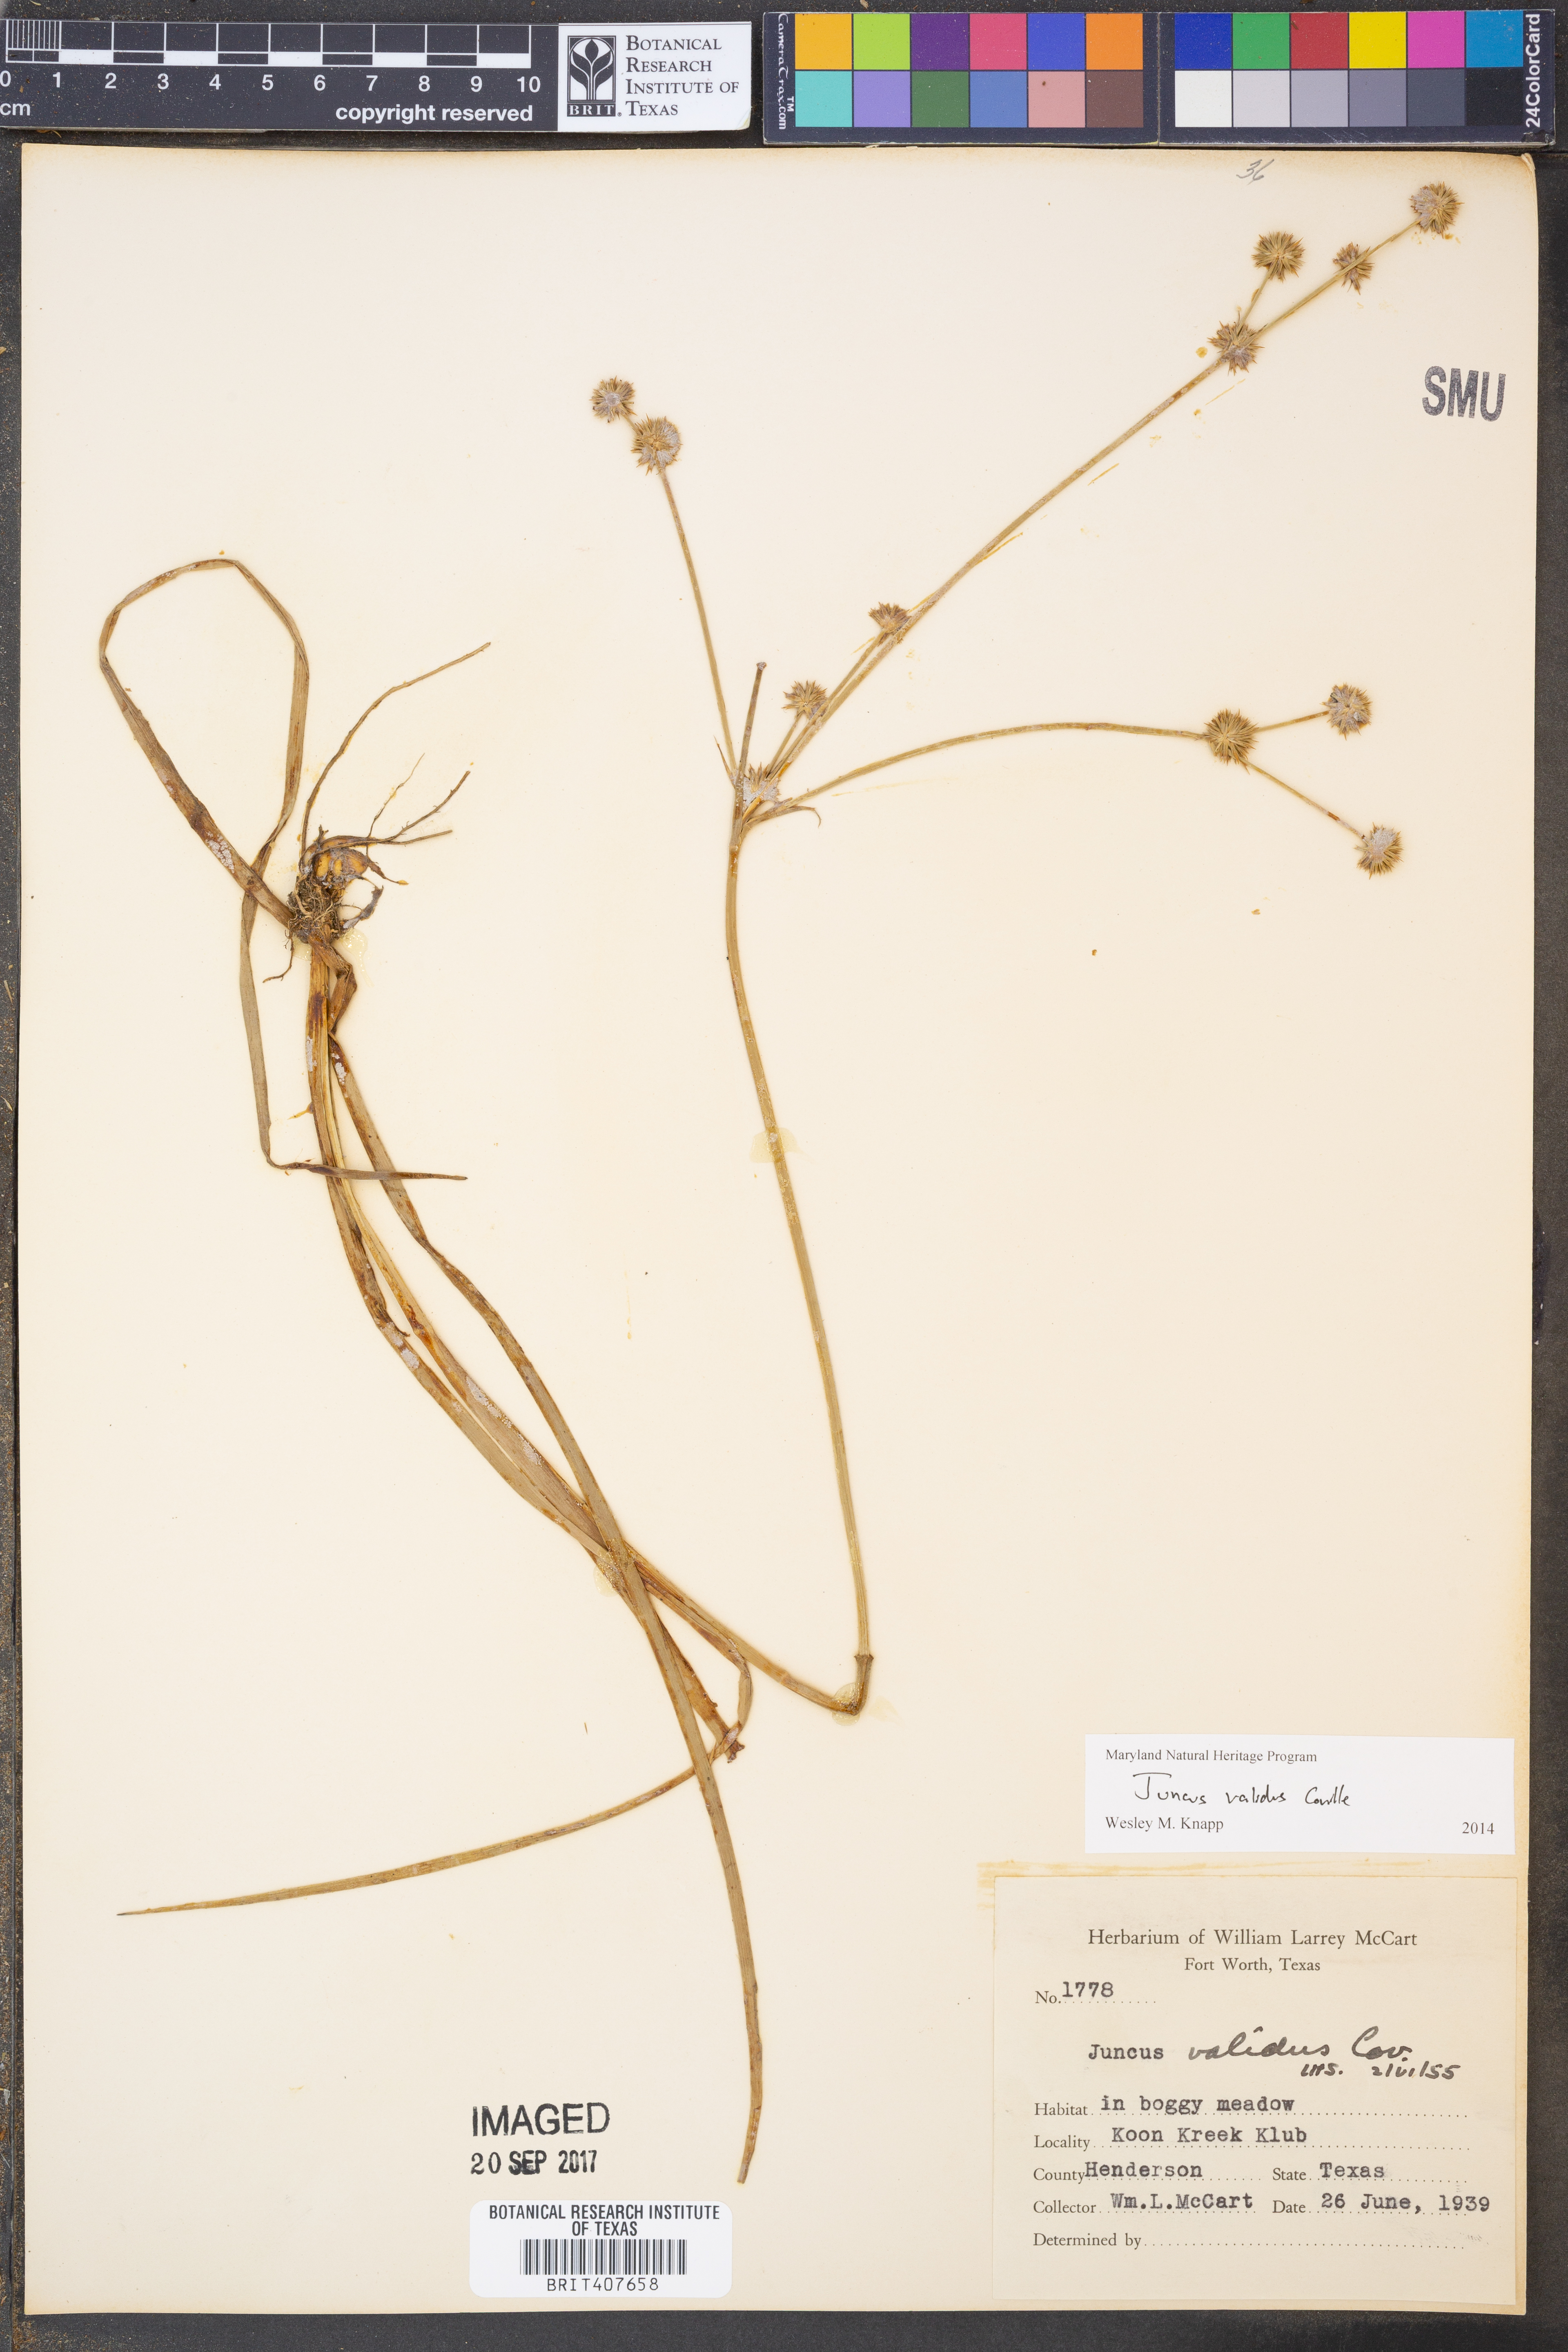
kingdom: Plantae
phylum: Tracheophyta
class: Liliopsida
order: Poales
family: Juncaceae
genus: Juncus
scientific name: Juncus validus
